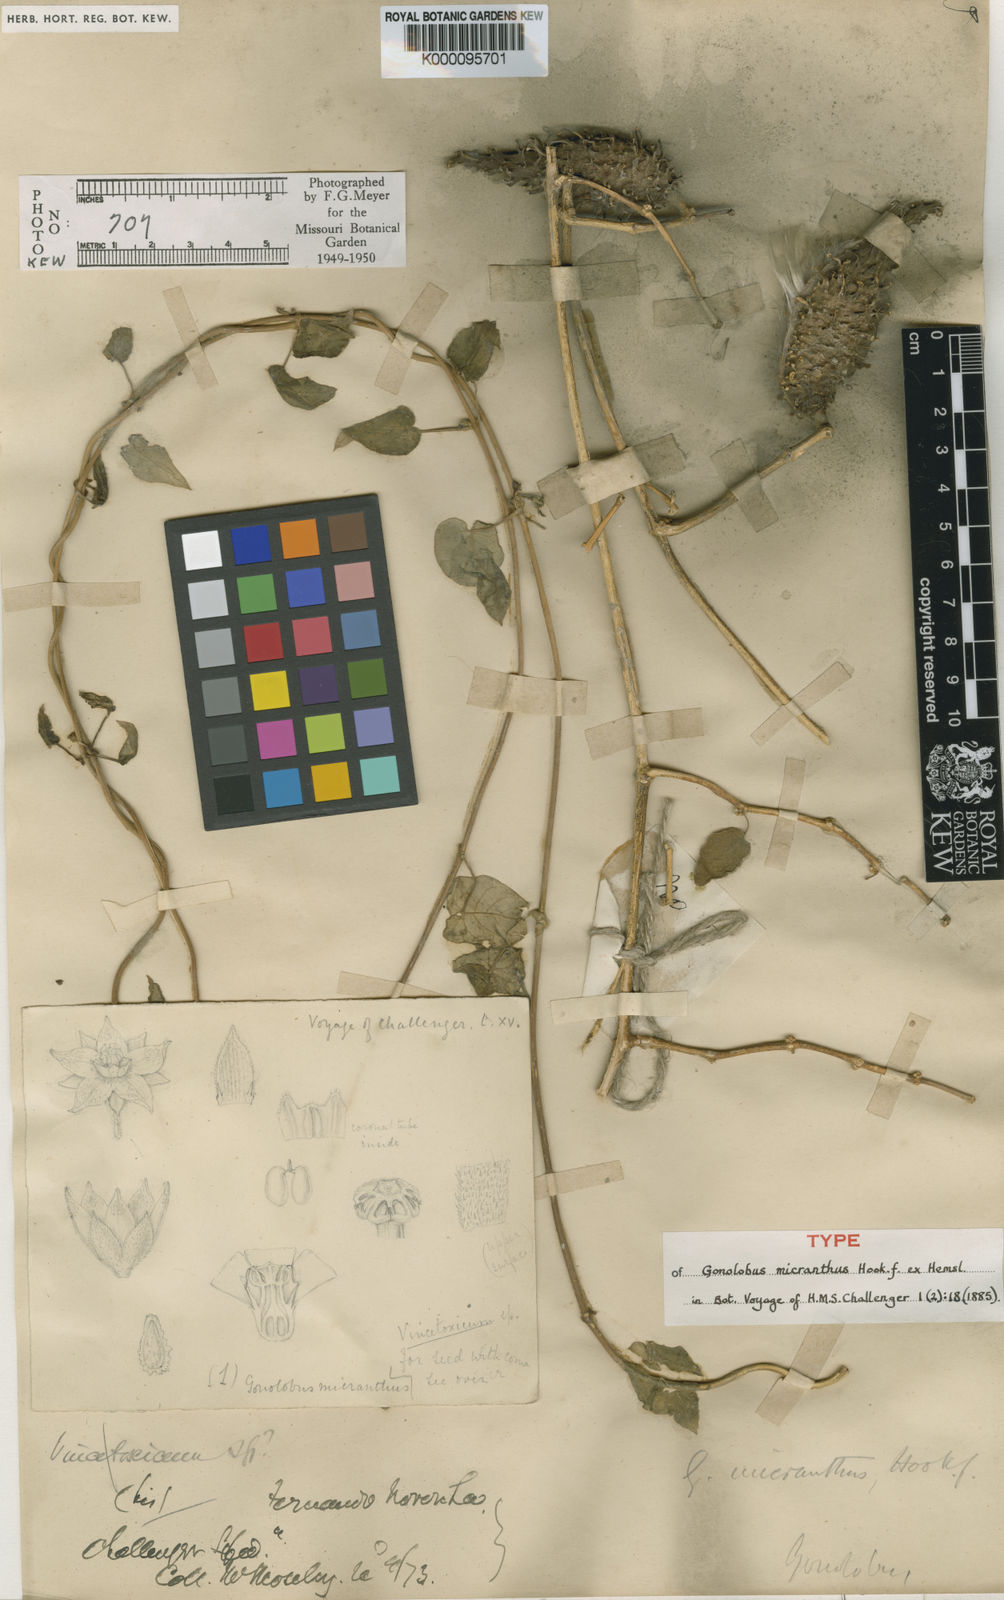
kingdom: Plantae
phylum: Tracheophyta
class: Magnoliopsida
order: Gentianales
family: Apocynaceae
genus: Ibatia
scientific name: Ibatia maritima
